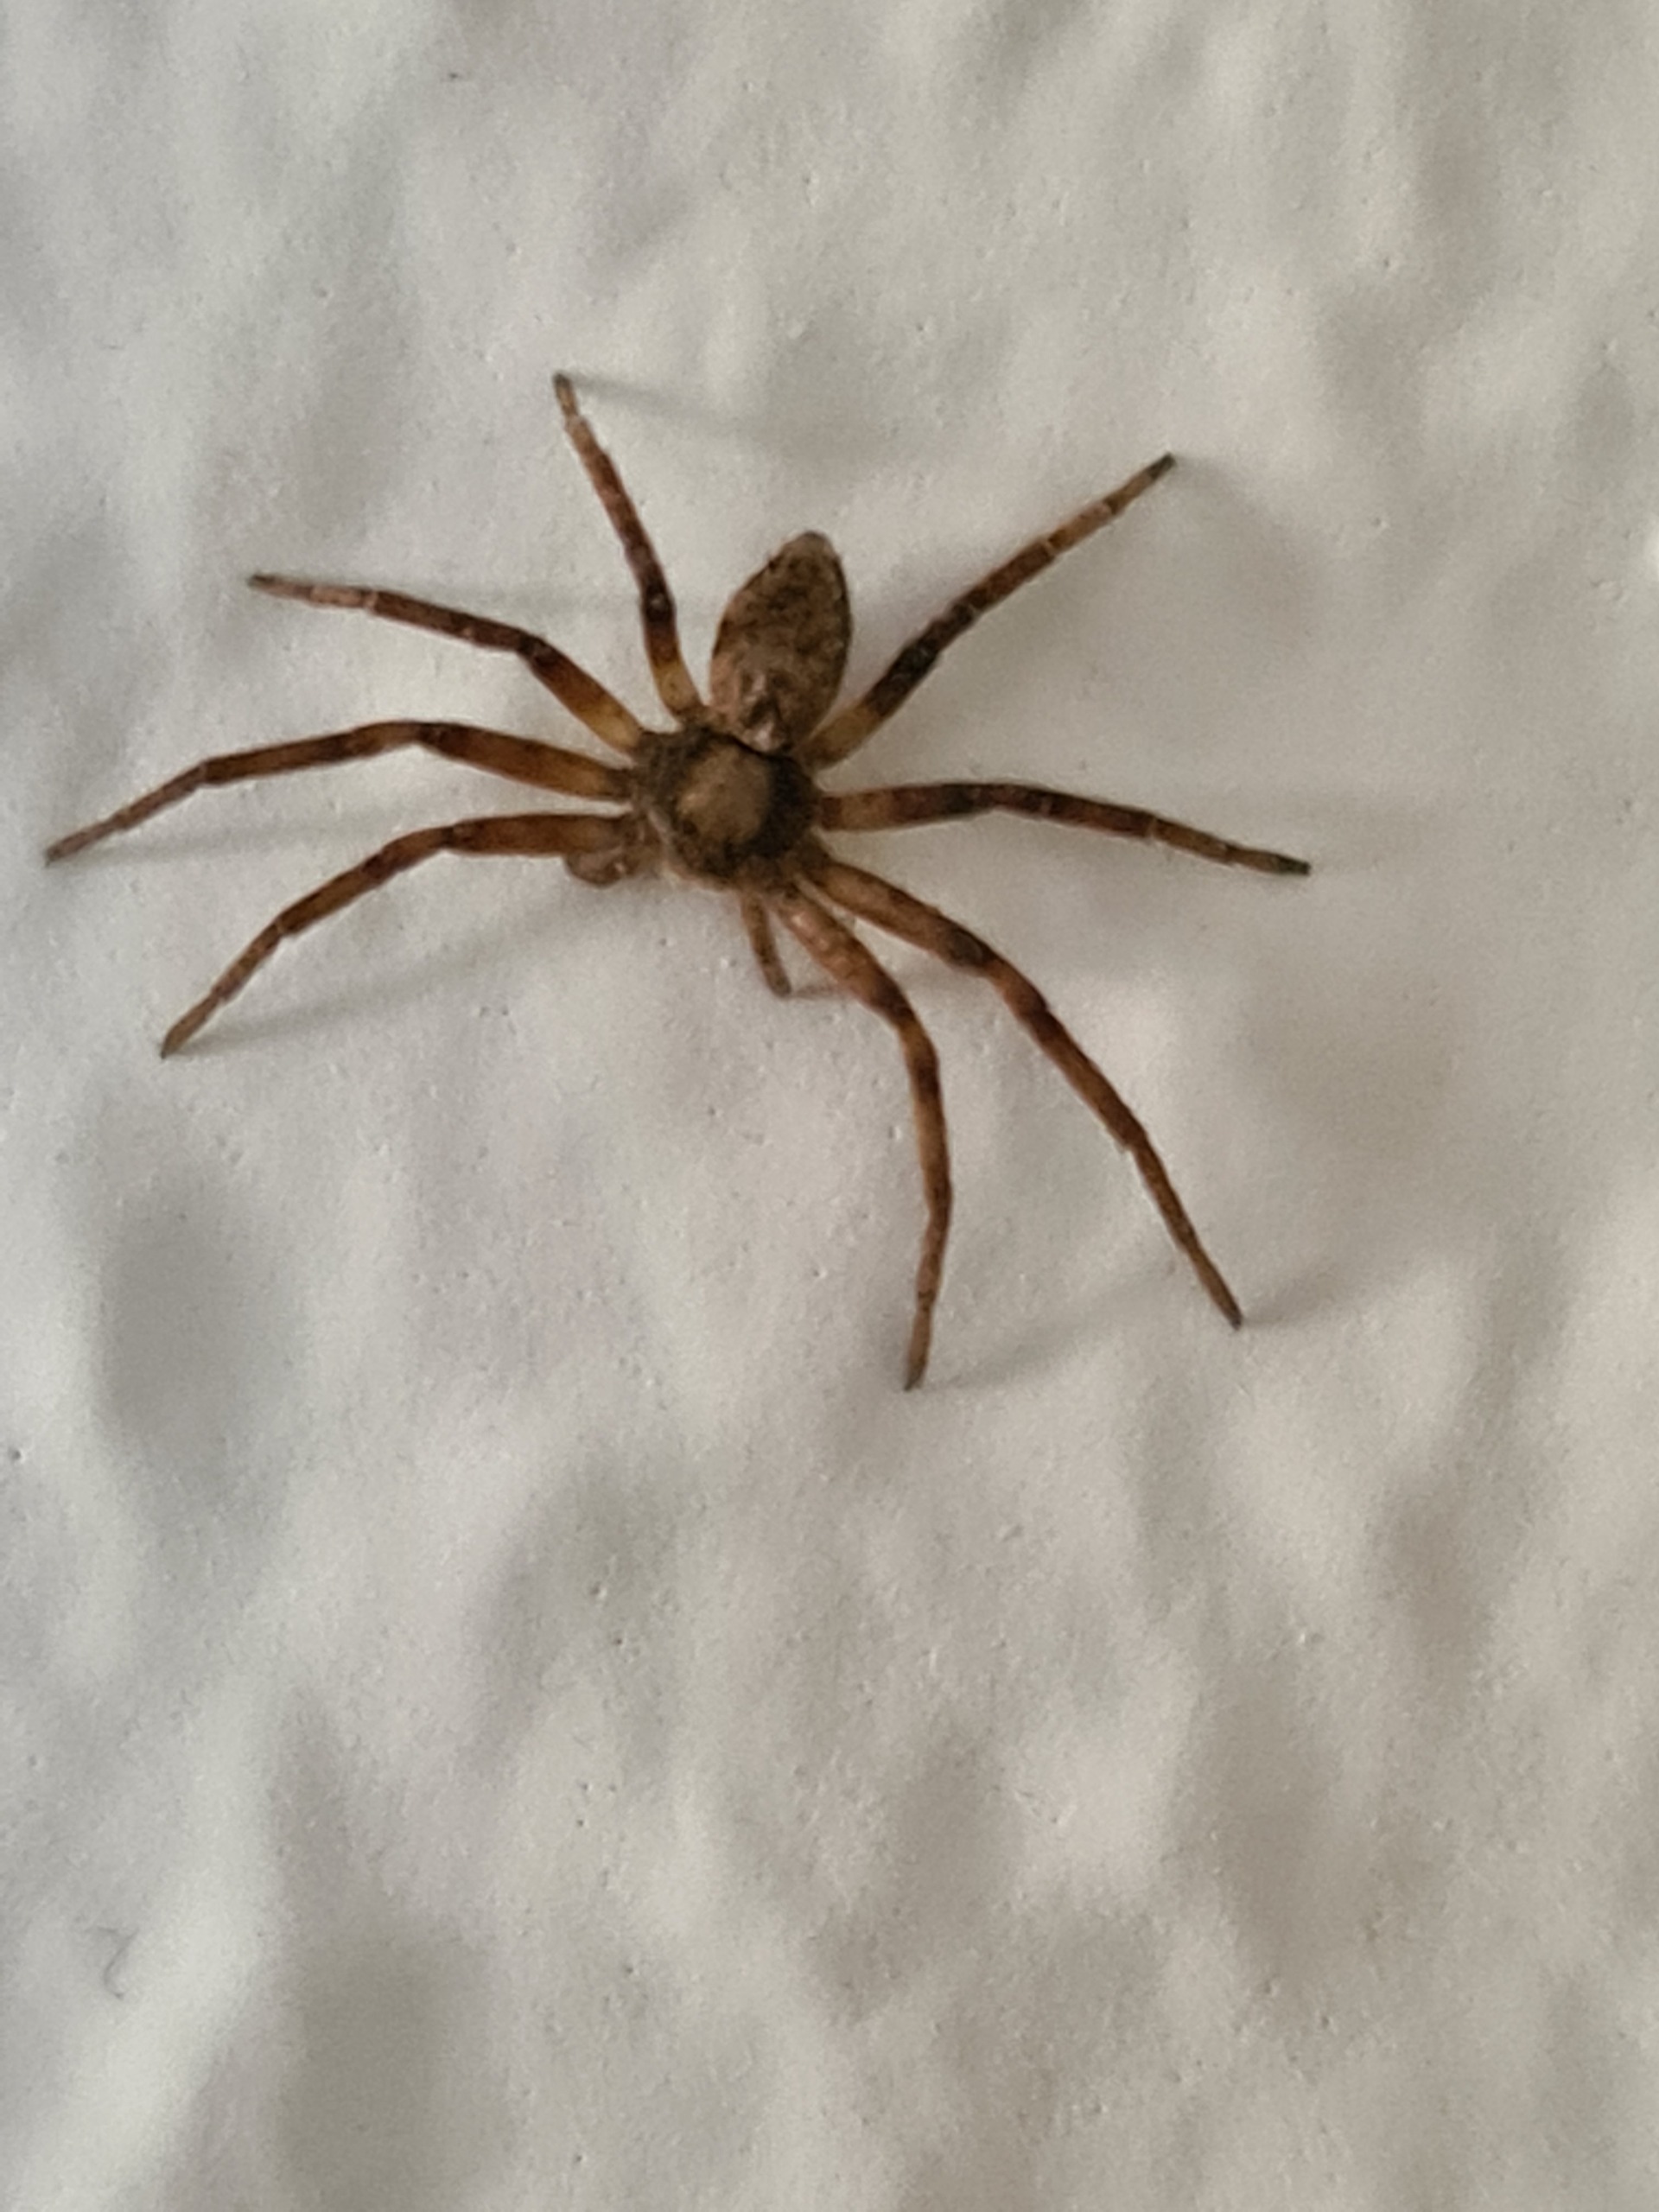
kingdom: Animalia
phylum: Arthropoda
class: Arachnida
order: Araneae
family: Philodromidae
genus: Philodromus
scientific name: Philodromus
